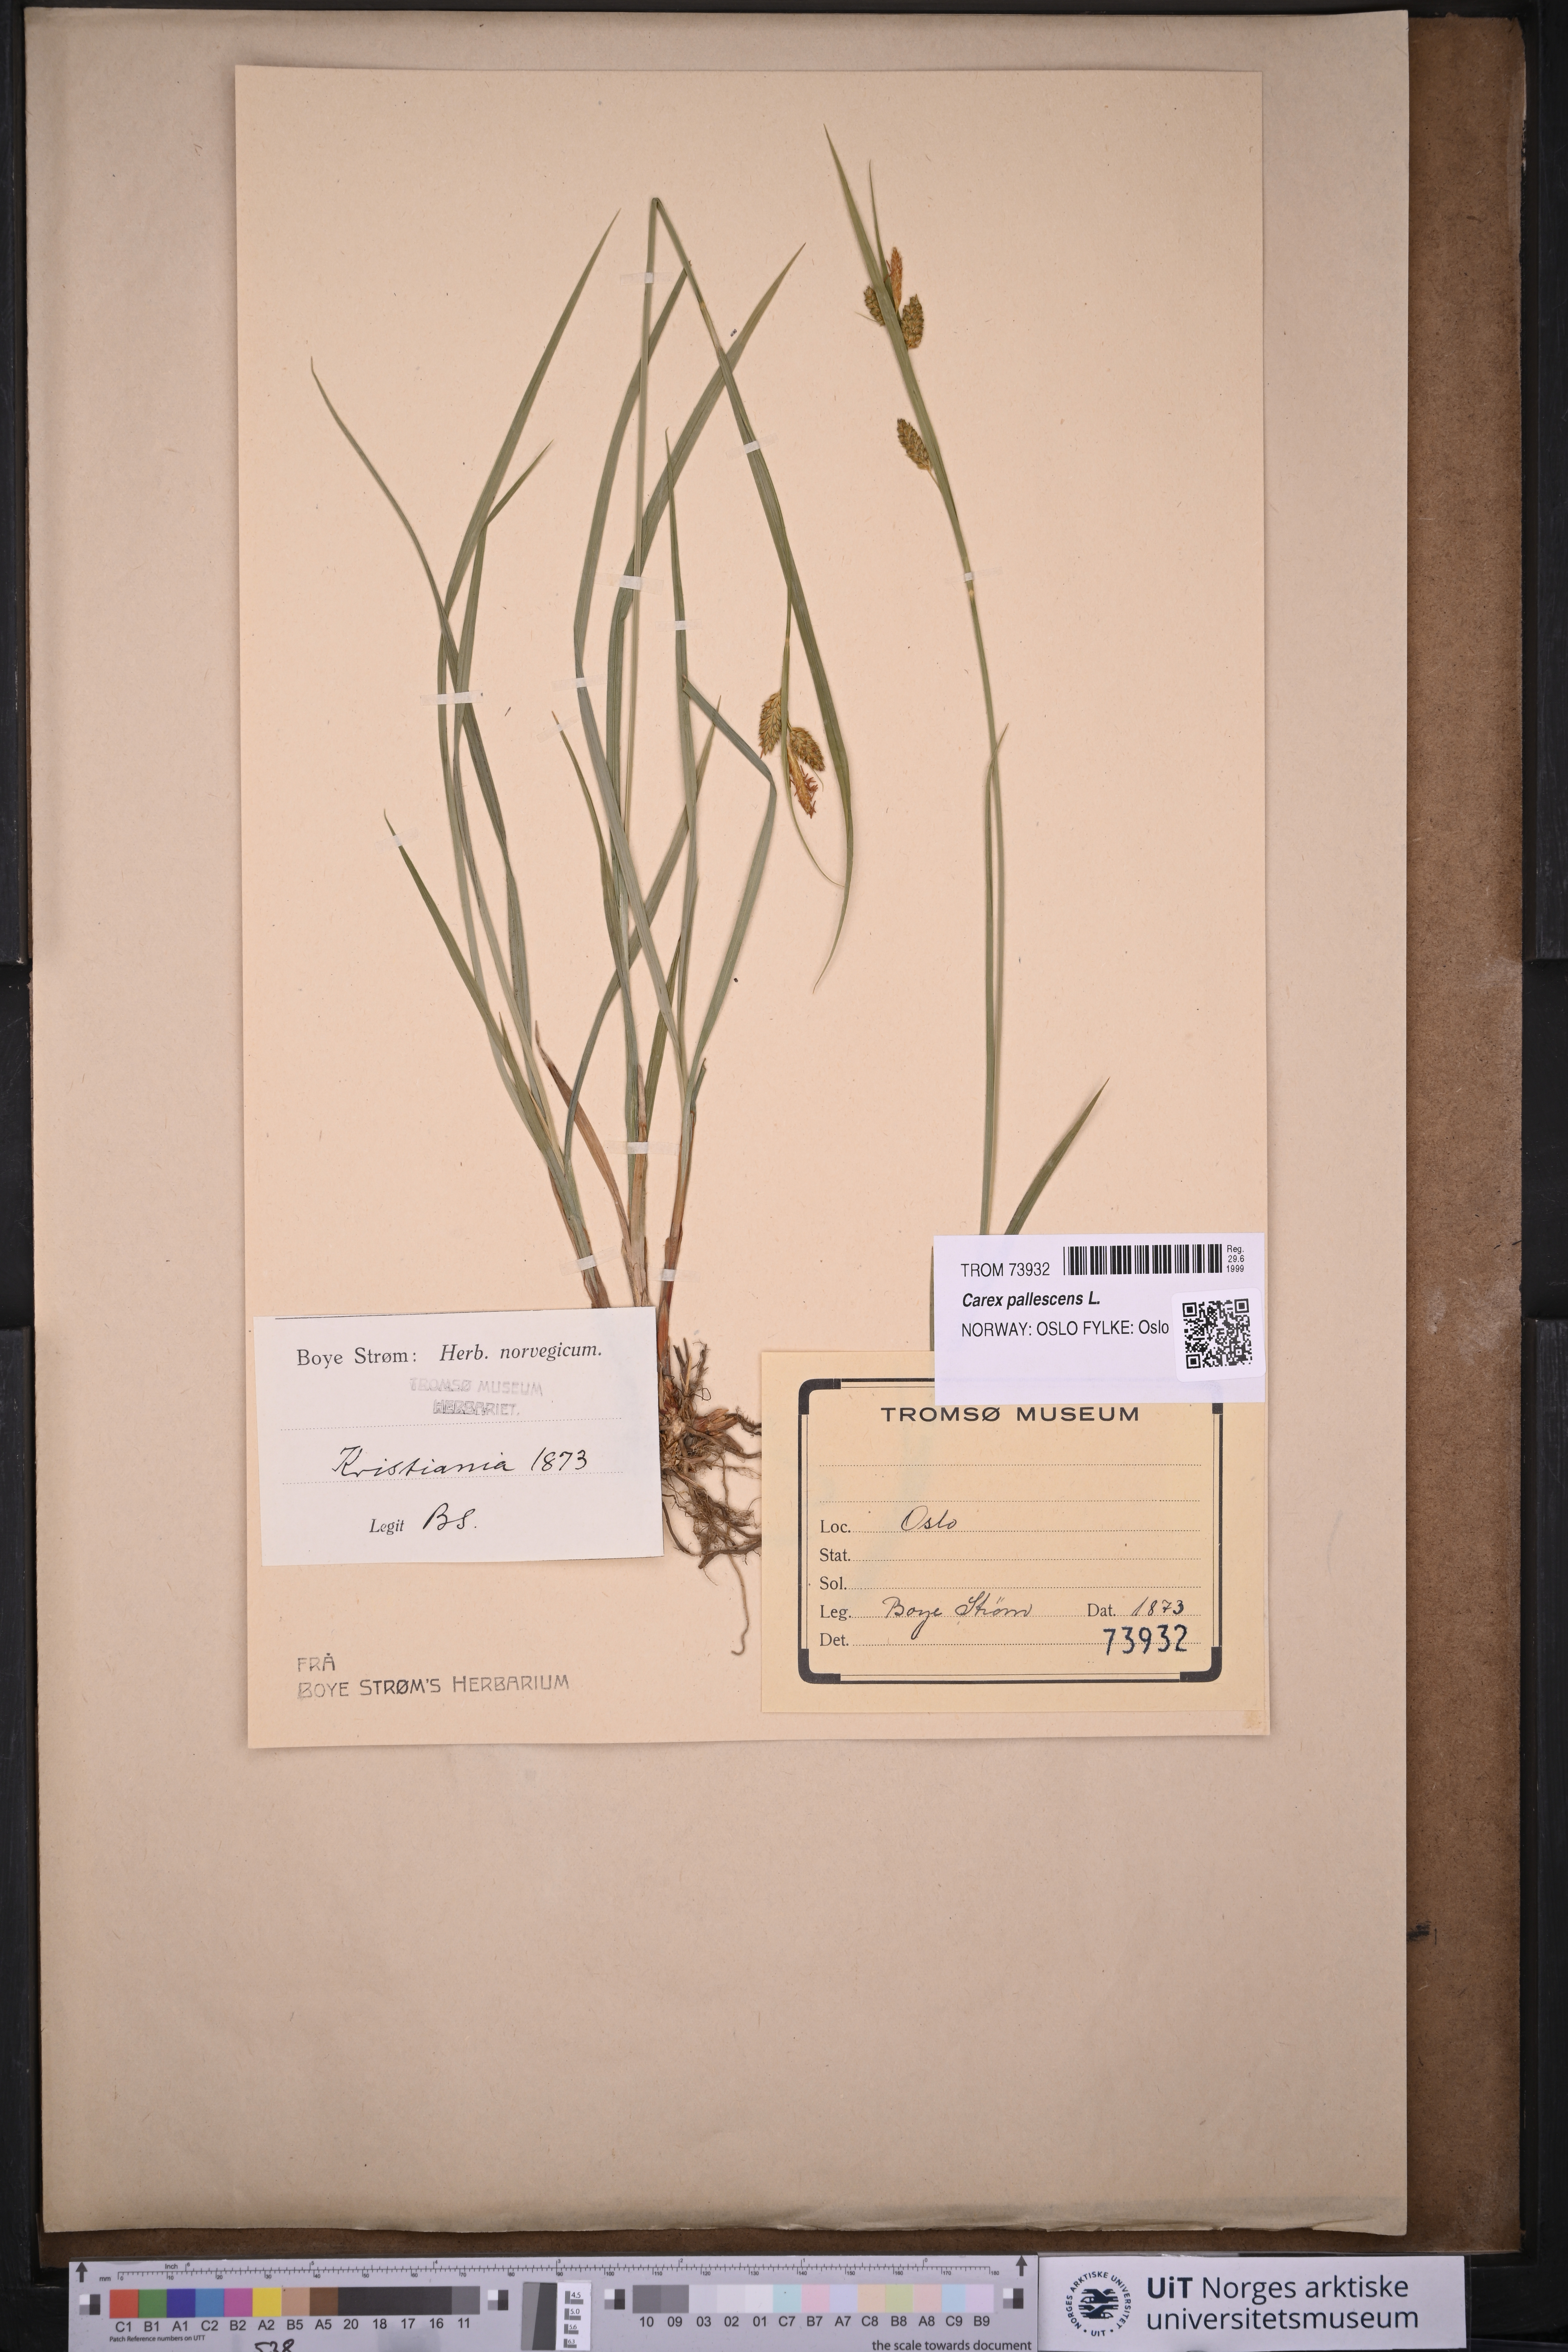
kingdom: Plantae
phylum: Tracheophyta
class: Liliopsida
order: Poales
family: Cyperaceae
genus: Carex
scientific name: Carex pallescens
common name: Pale sedge
